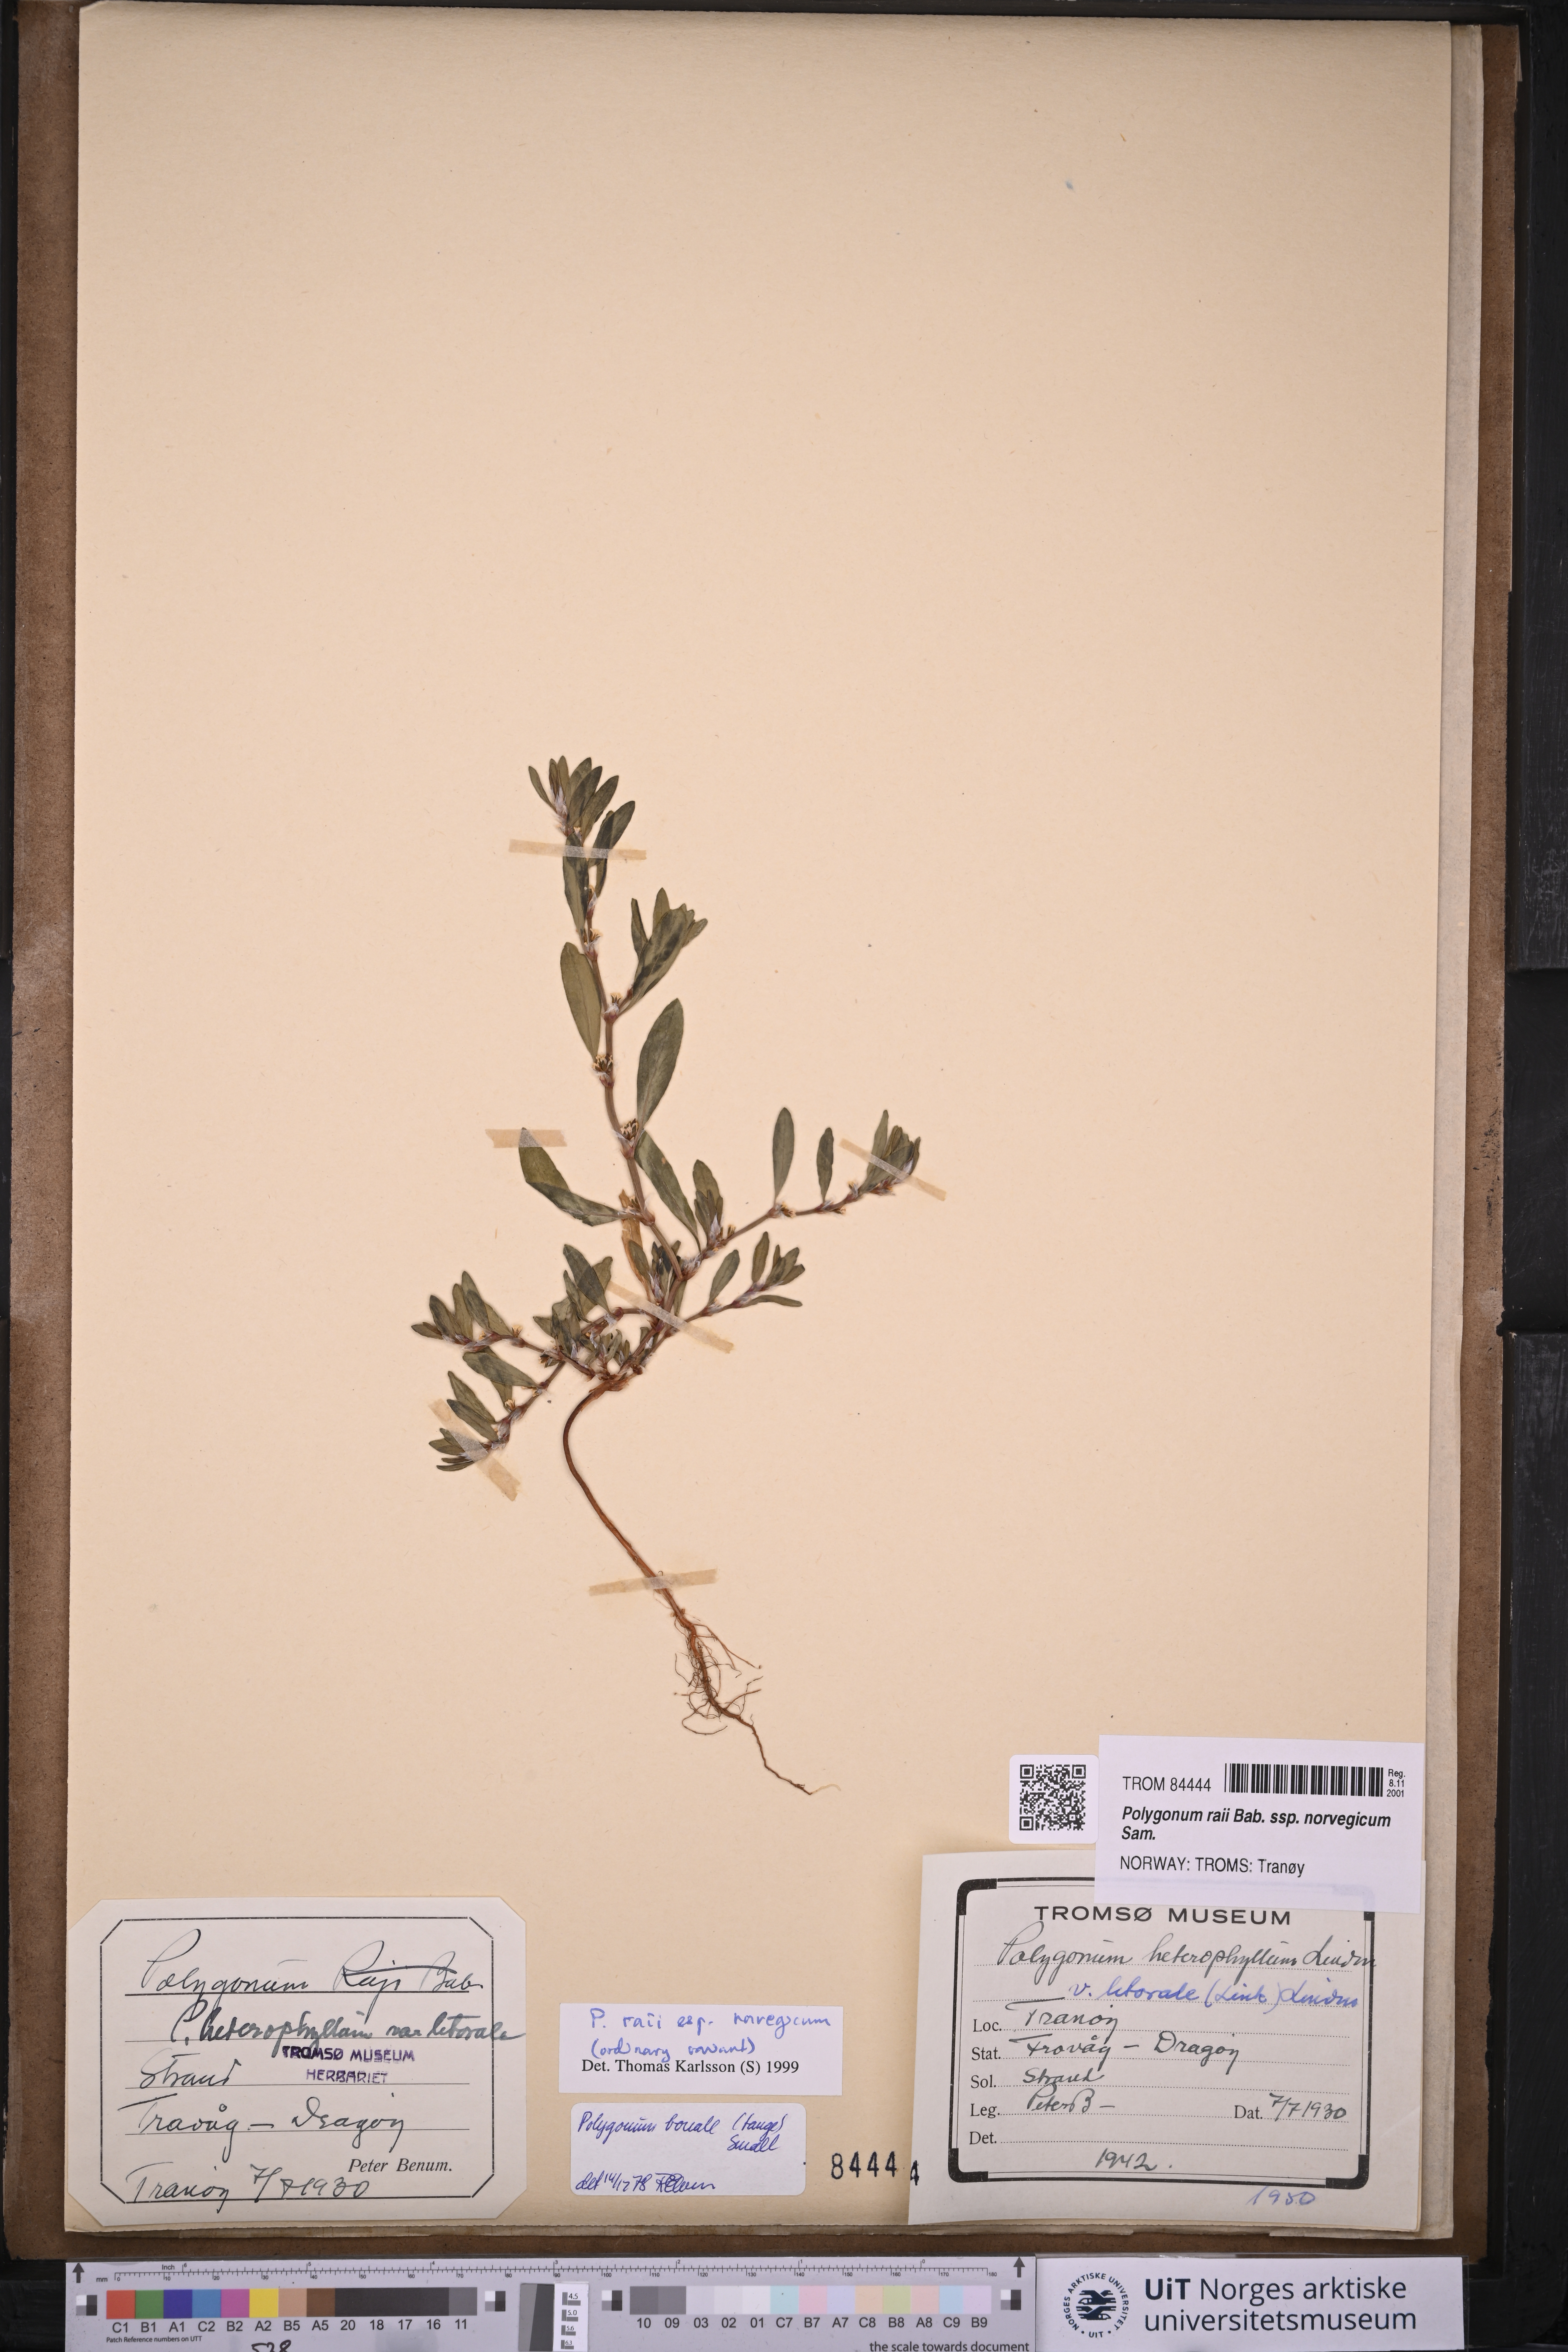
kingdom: Plantae
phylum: Tracheophyta
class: Magnoliopsida
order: Caryophyllales
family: Polygonaceae
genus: Polygonum
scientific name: Polygonum norvegicum
